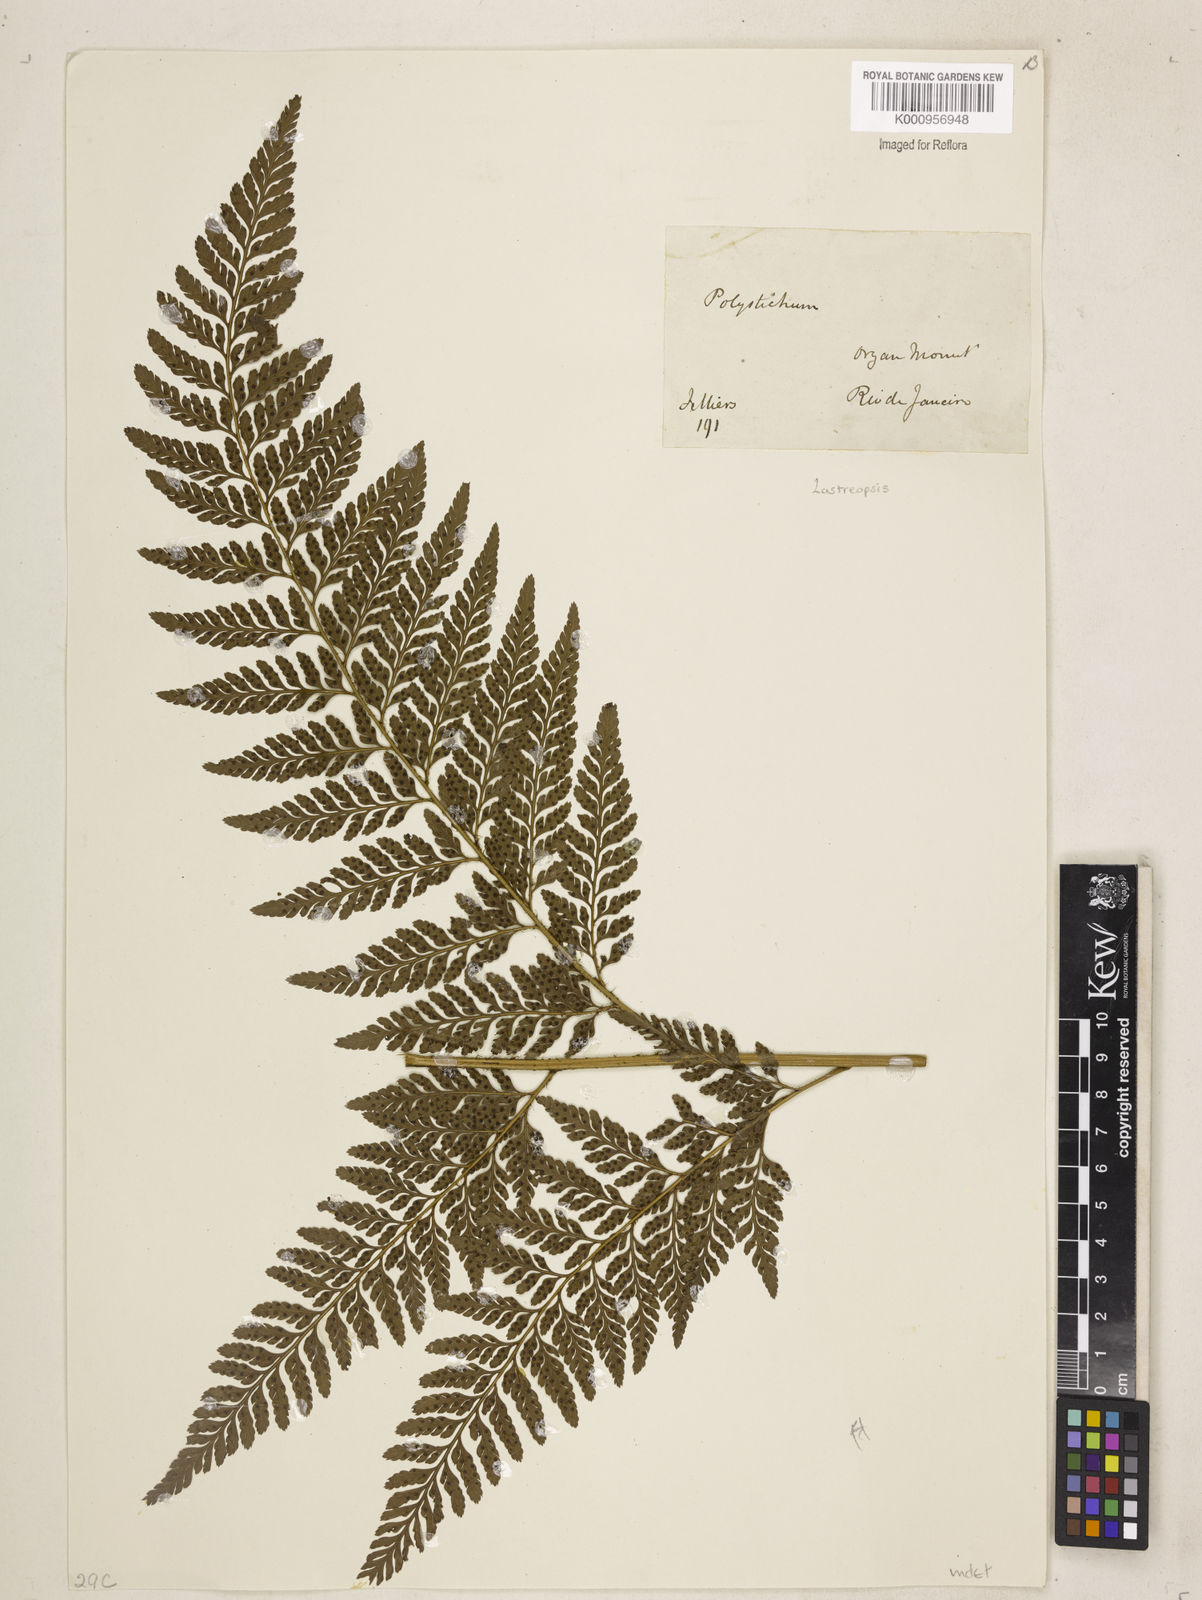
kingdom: Plantae
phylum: Tracheophyta
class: Polypodiopsida
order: Polypodiales
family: Dryopteridaceae
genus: Lastreopsis
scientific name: Lastreopsis amplissima
